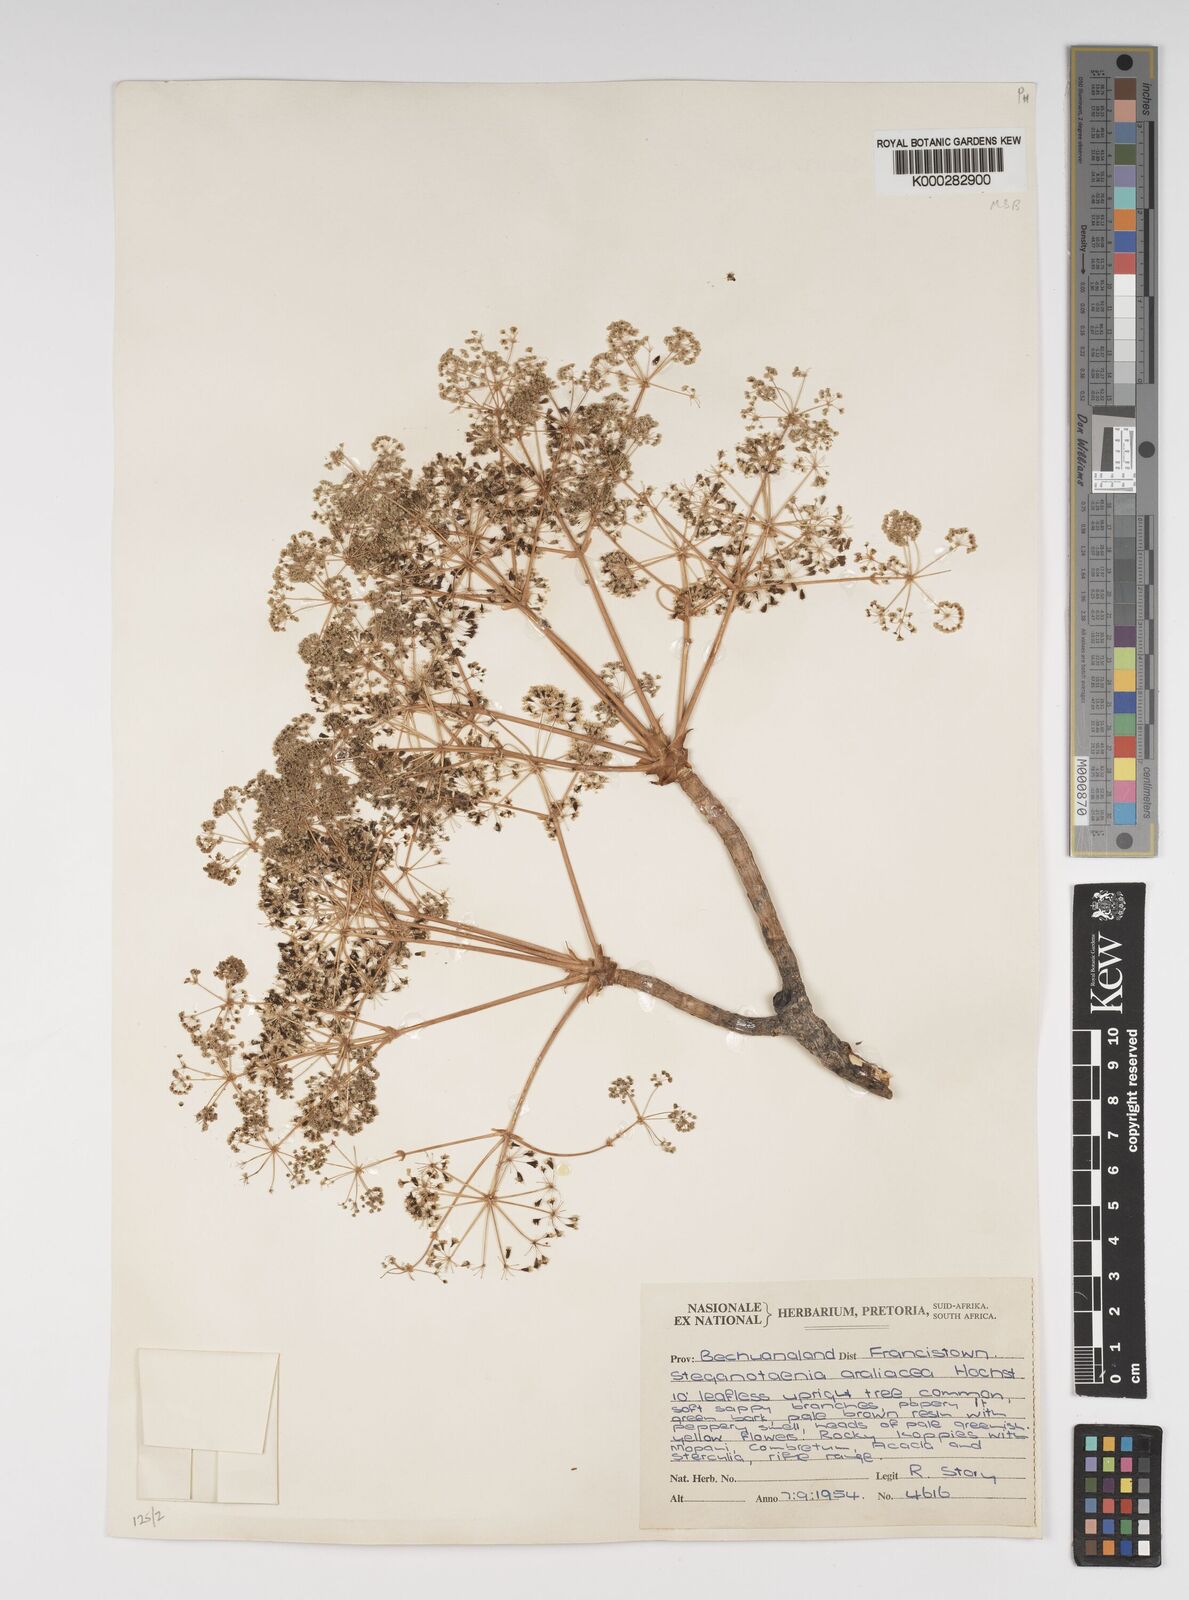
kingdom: Plantae
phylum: Tracheophyta
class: Magnoliopsida
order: Apiales
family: Apiaceae
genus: Steganotaenia
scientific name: Steganotaenia araliacea
